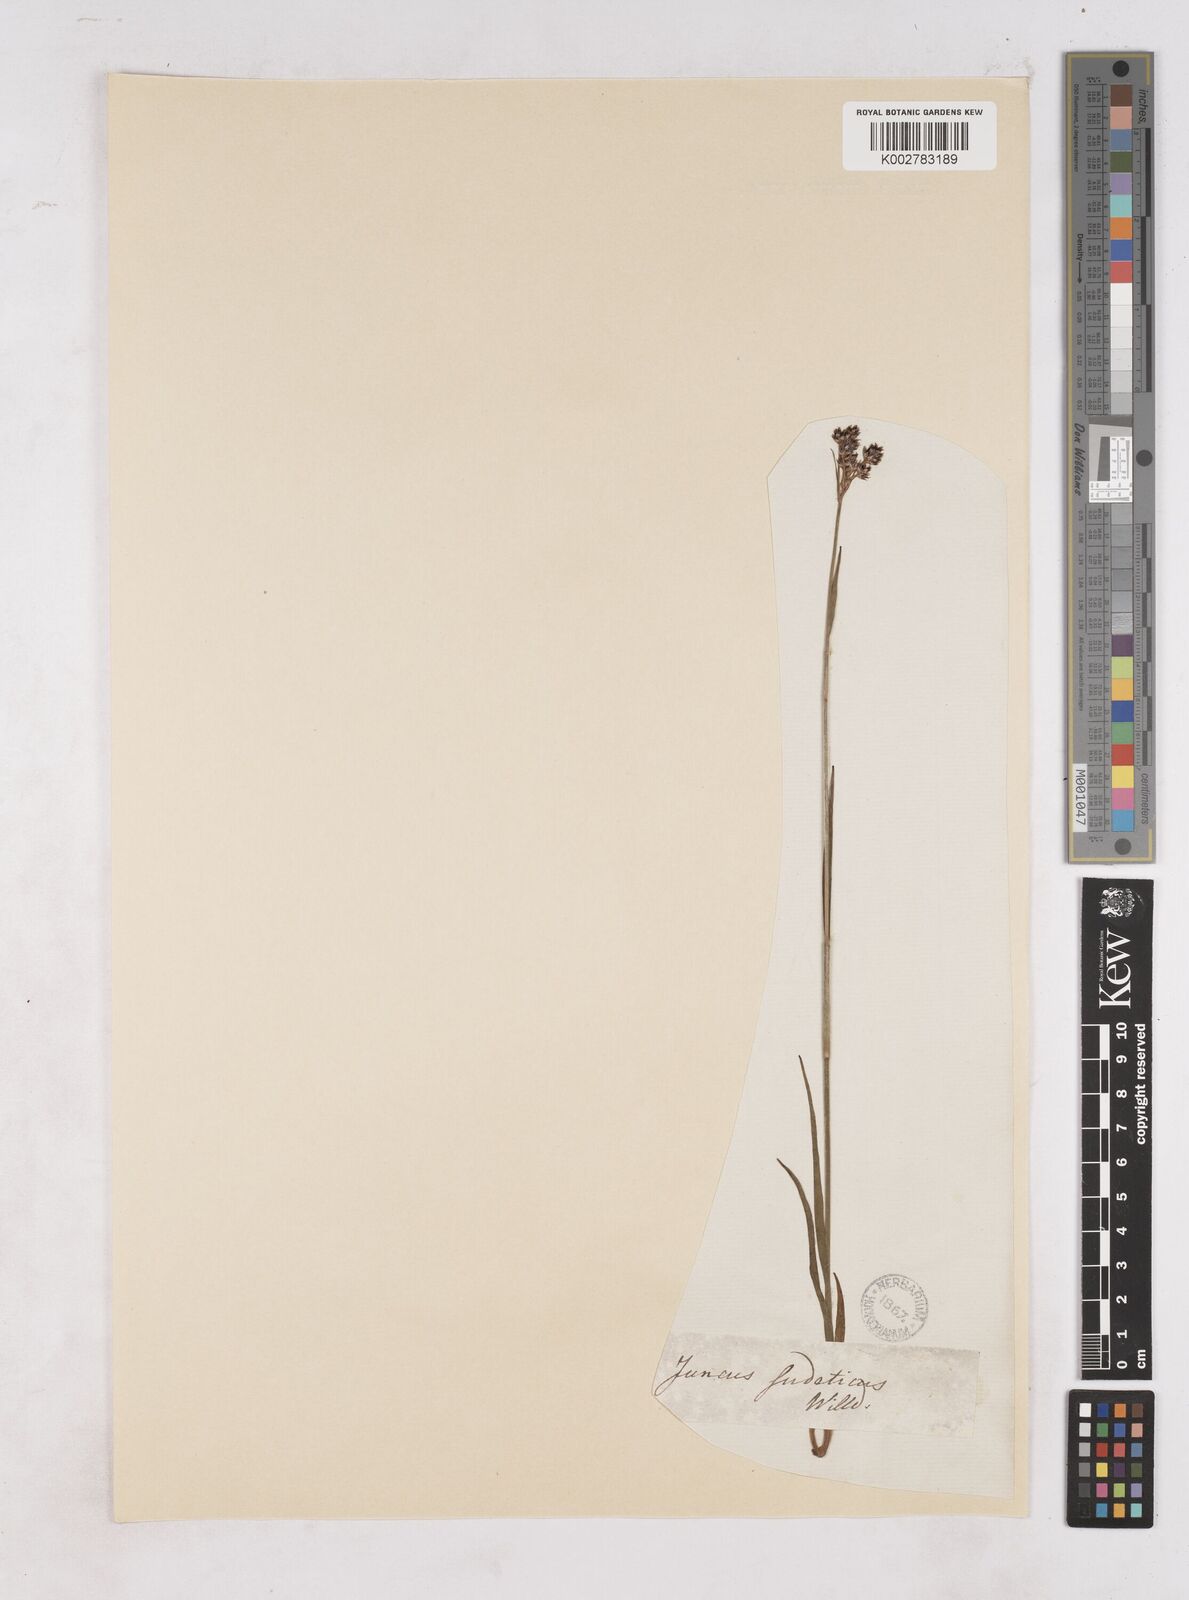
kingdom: Plantae
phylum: Tracheophyta
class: Liliopsida
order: Poales
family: Juncaceae
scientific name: Juncaceae
